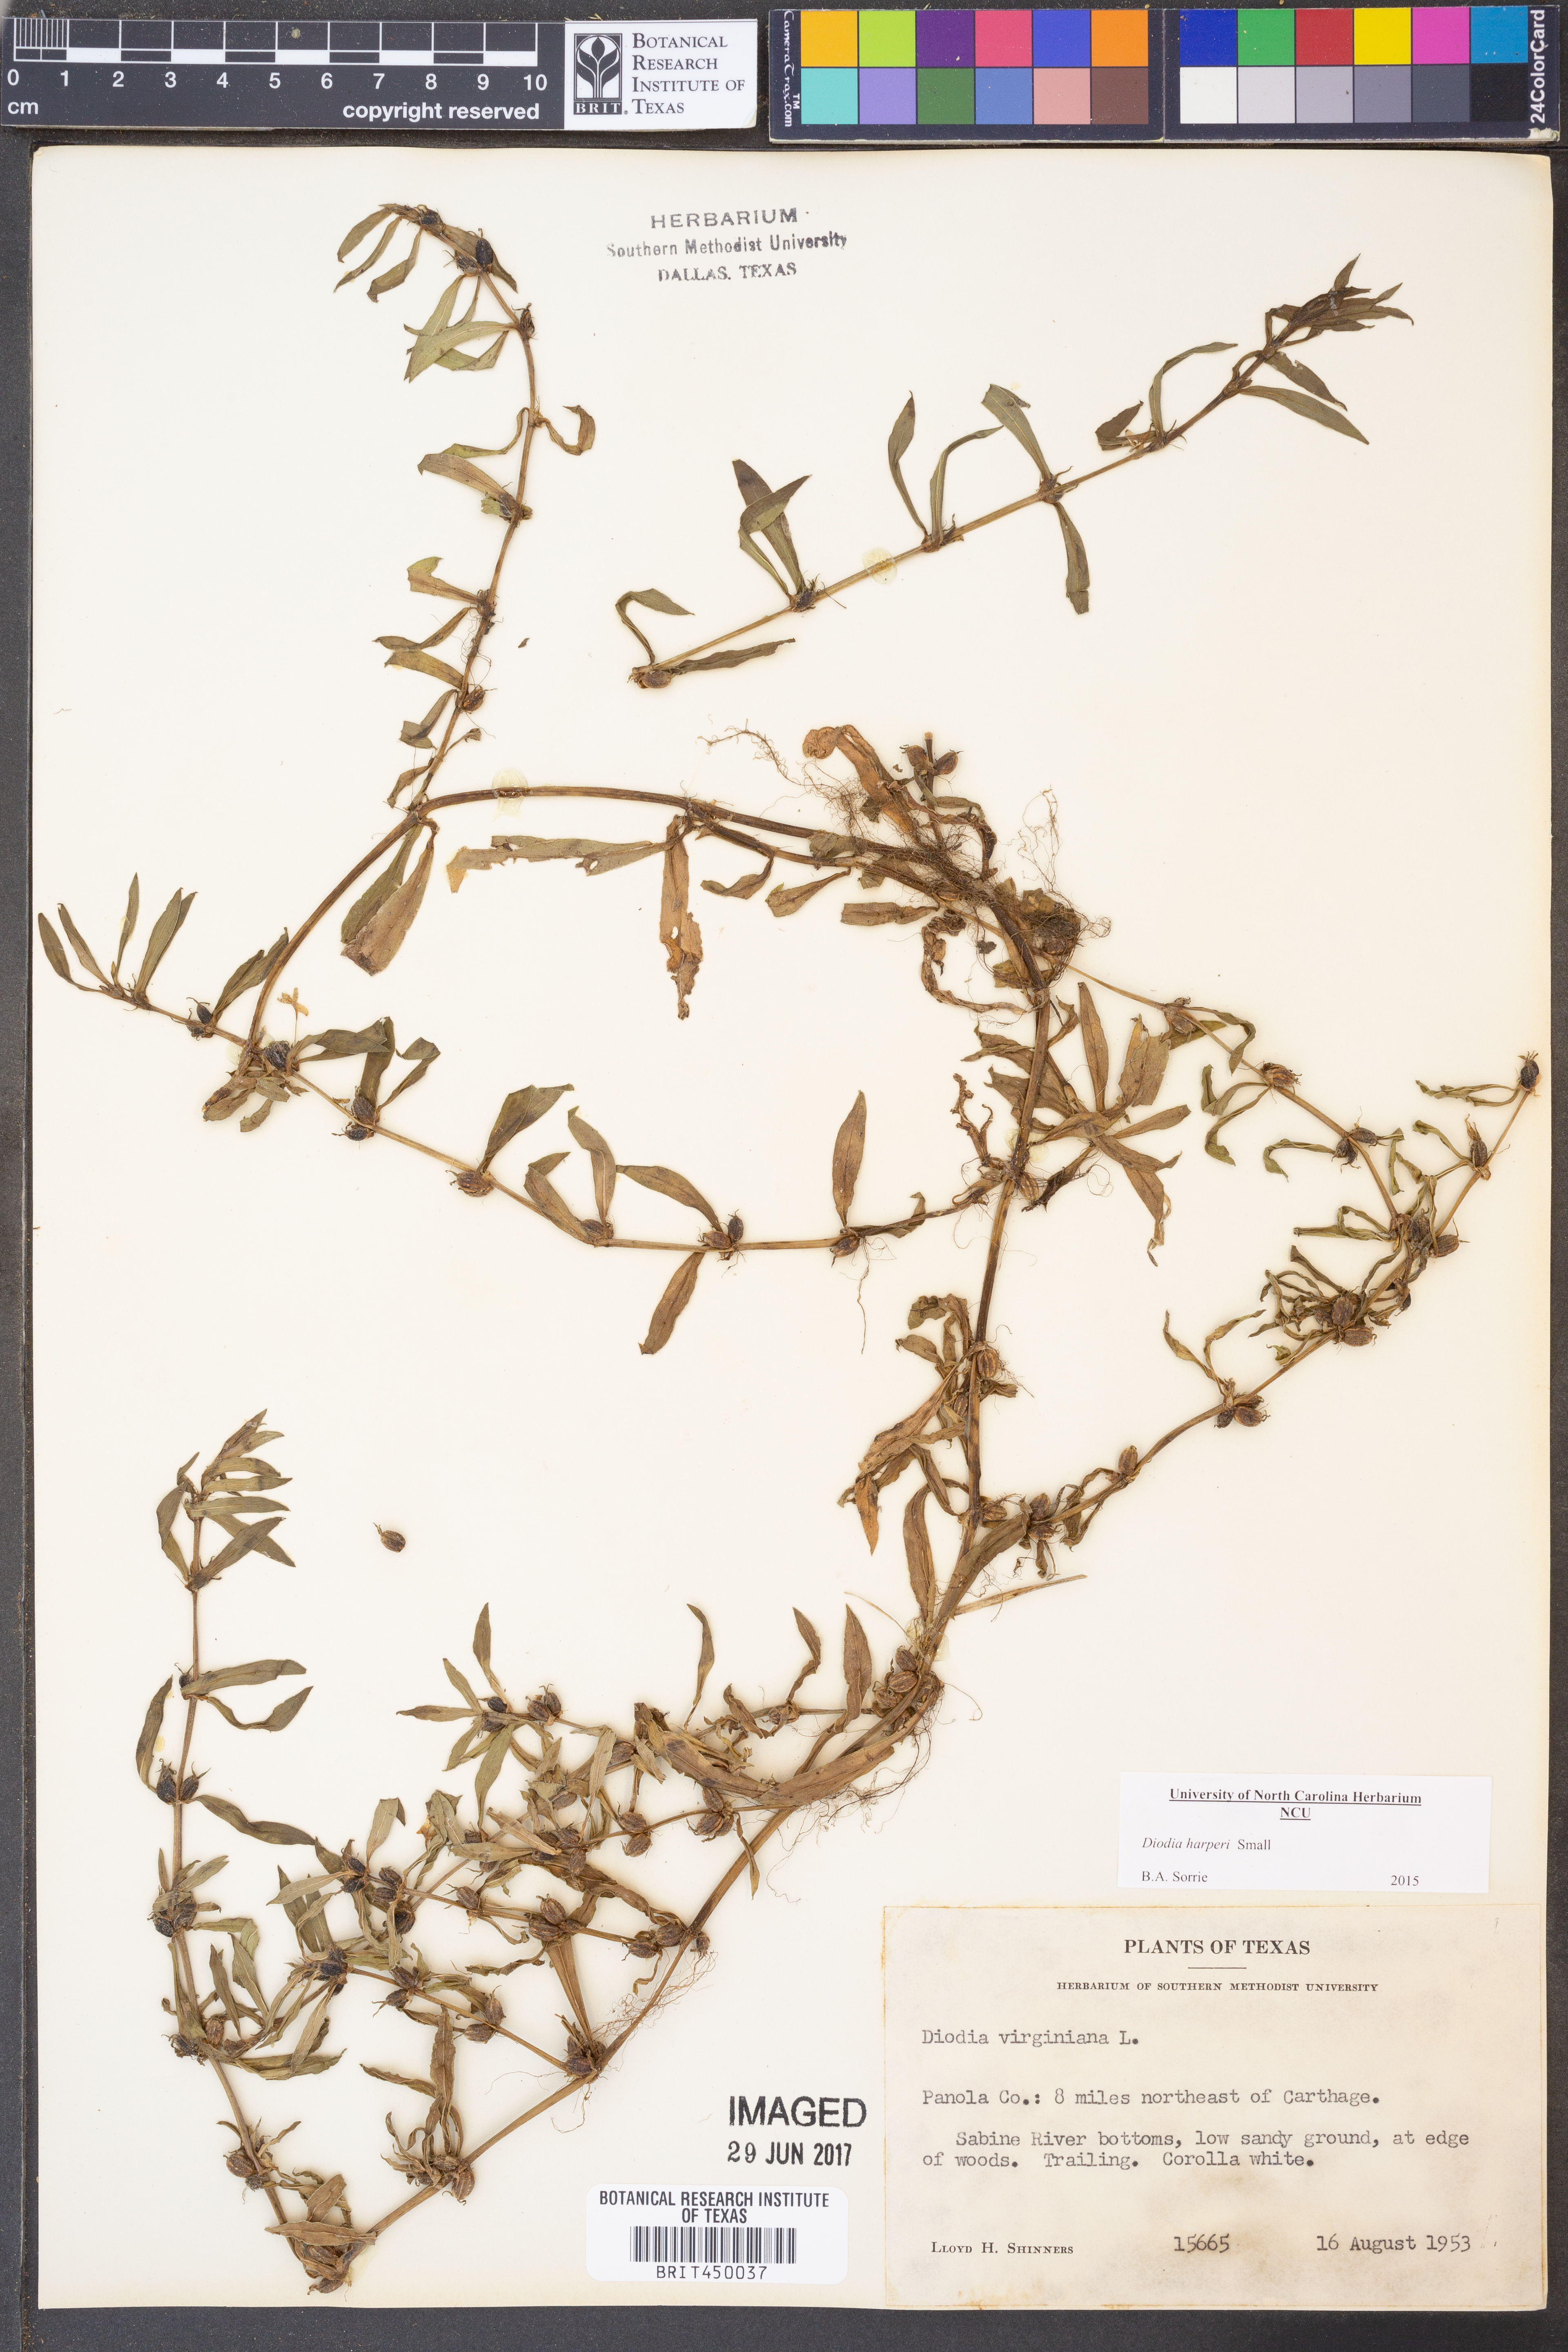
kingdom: Plantae
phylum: Tracheophyta
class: Magnoliopsida
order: Gentianales
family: Rubiaceae
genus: Diodia
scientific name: Diodia virginiana
